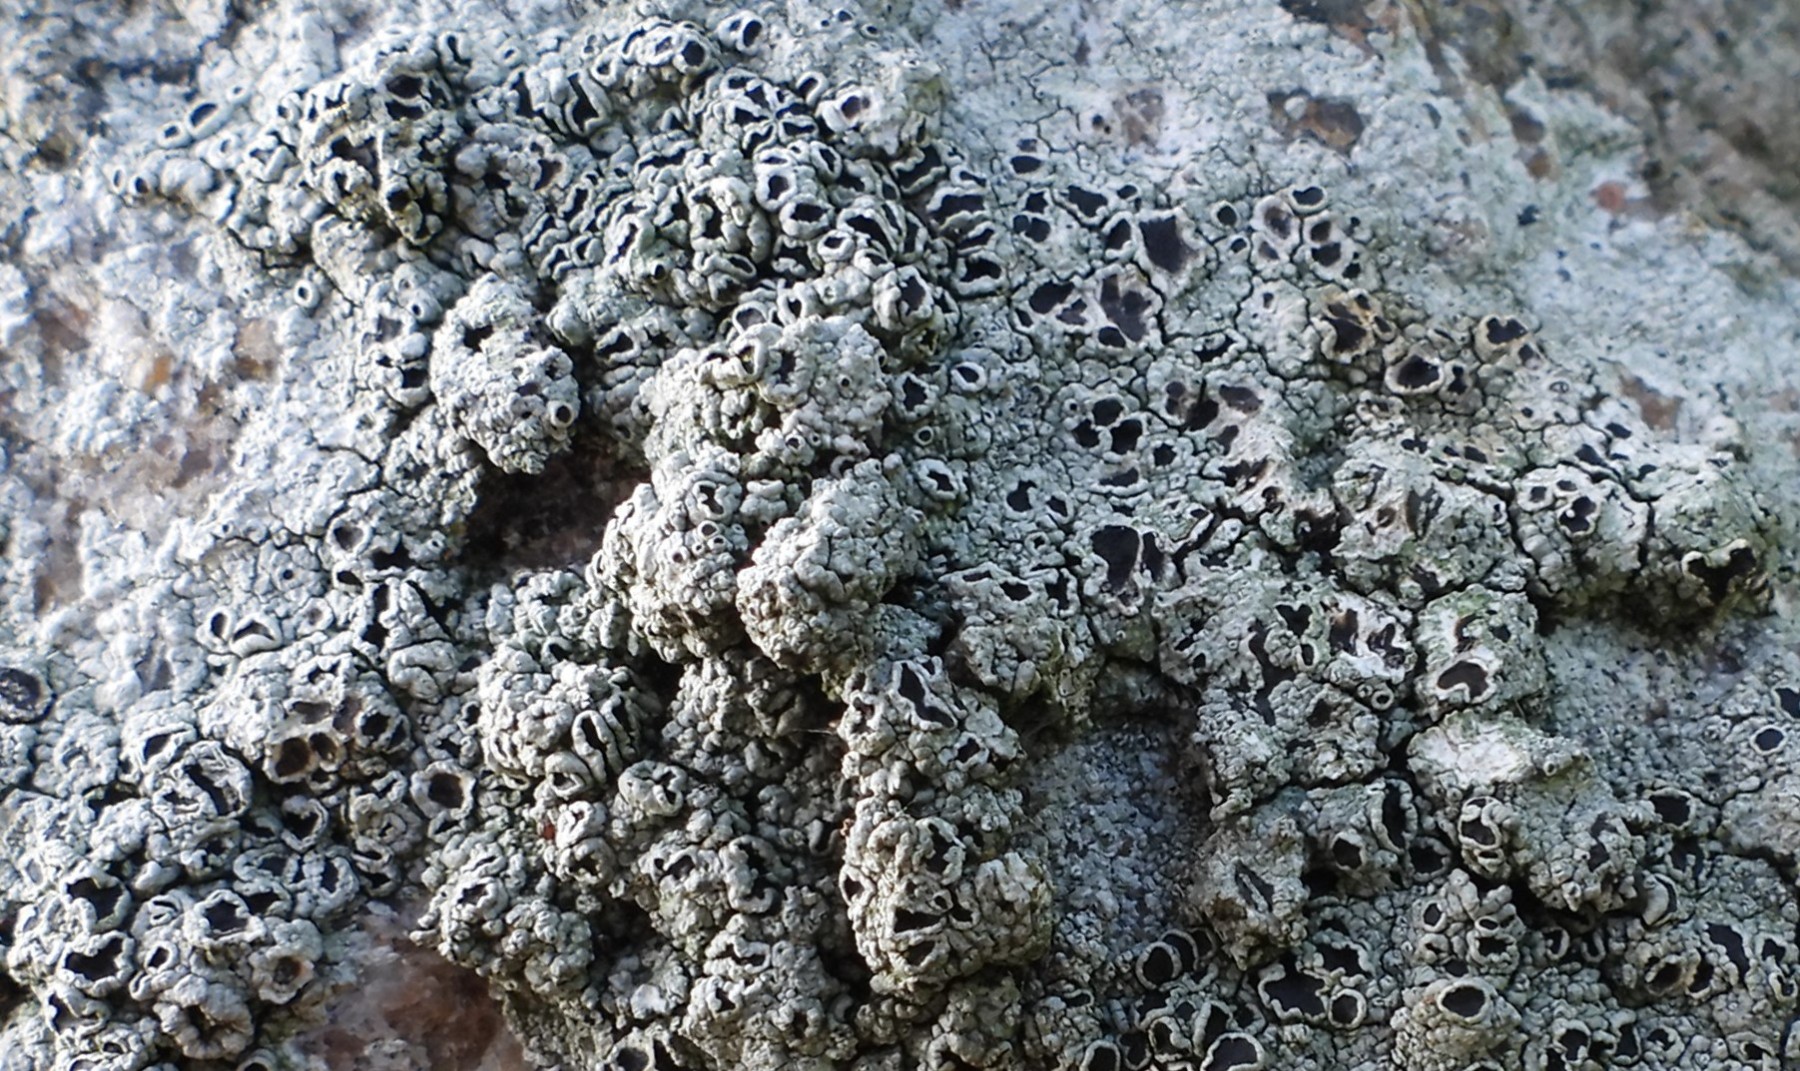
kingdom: Fungi
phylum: Ascomycota
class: Lecanoromycetes
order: Lecanorales
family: Tephromelataceae
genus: Tephromela
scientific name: Tephromela atra
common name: sortfrugtet kantskivelav
